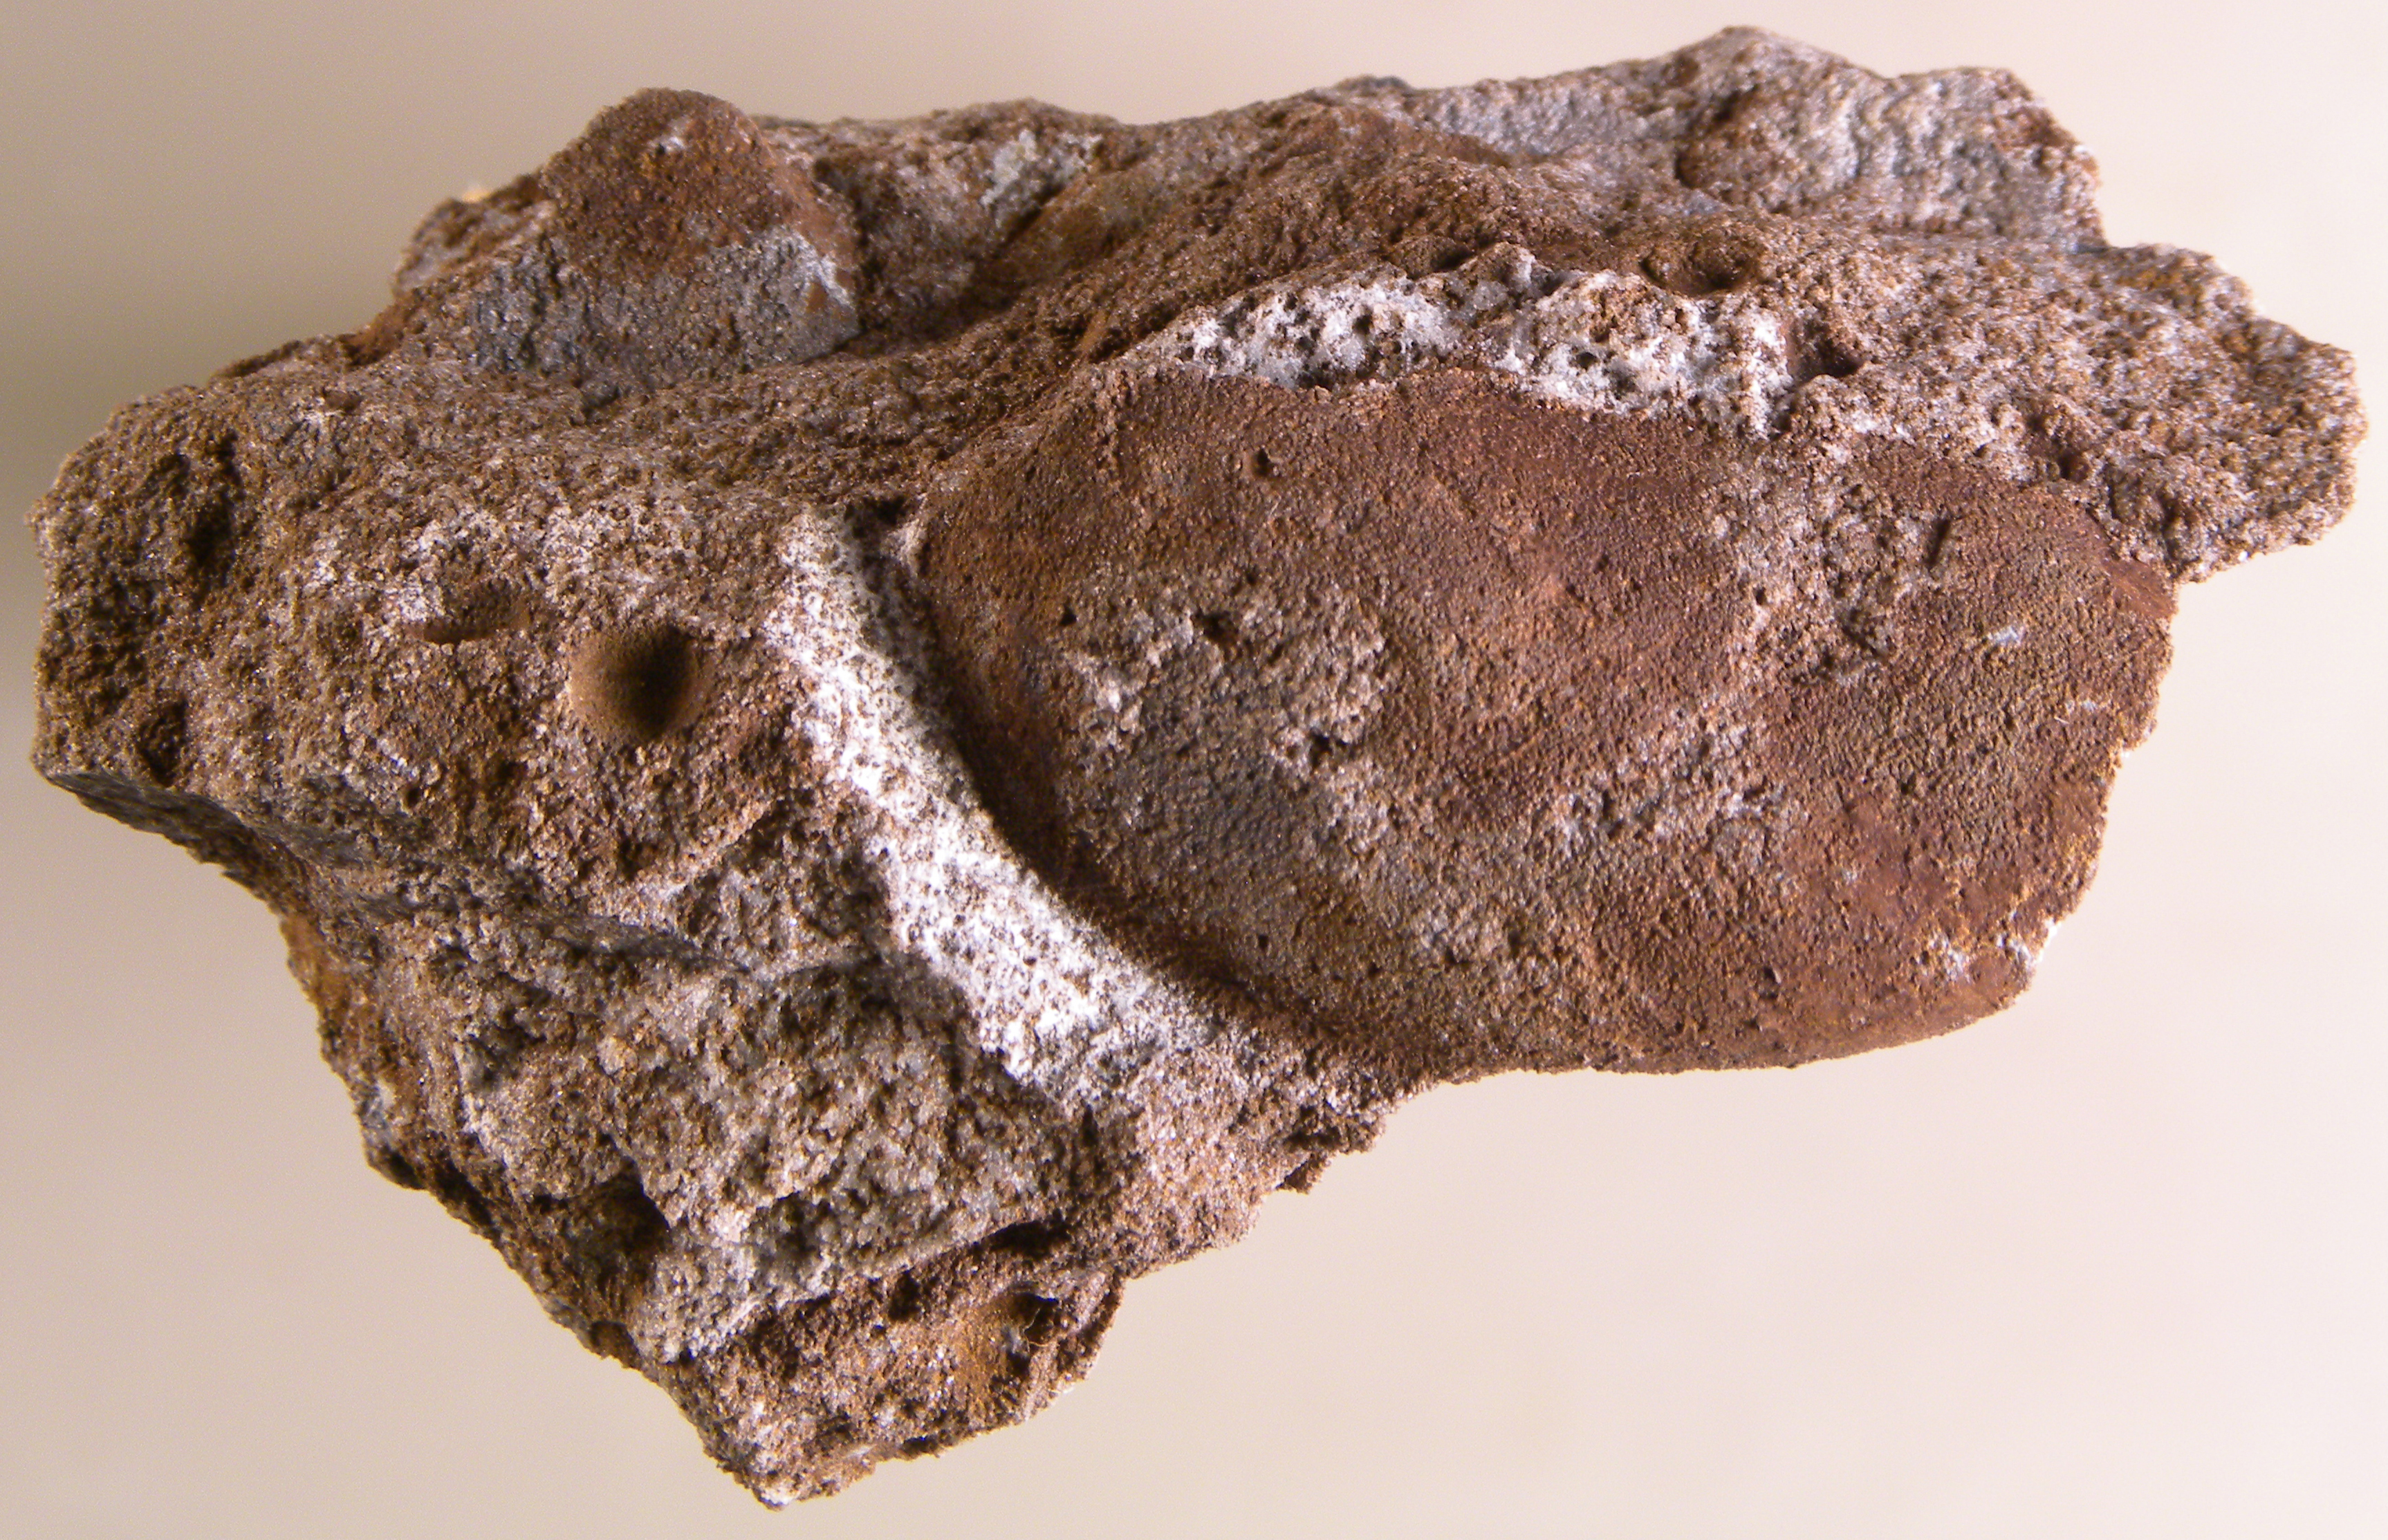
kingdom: Animalia
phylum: Mollusca
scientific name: Mollusca
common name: Mollusca
